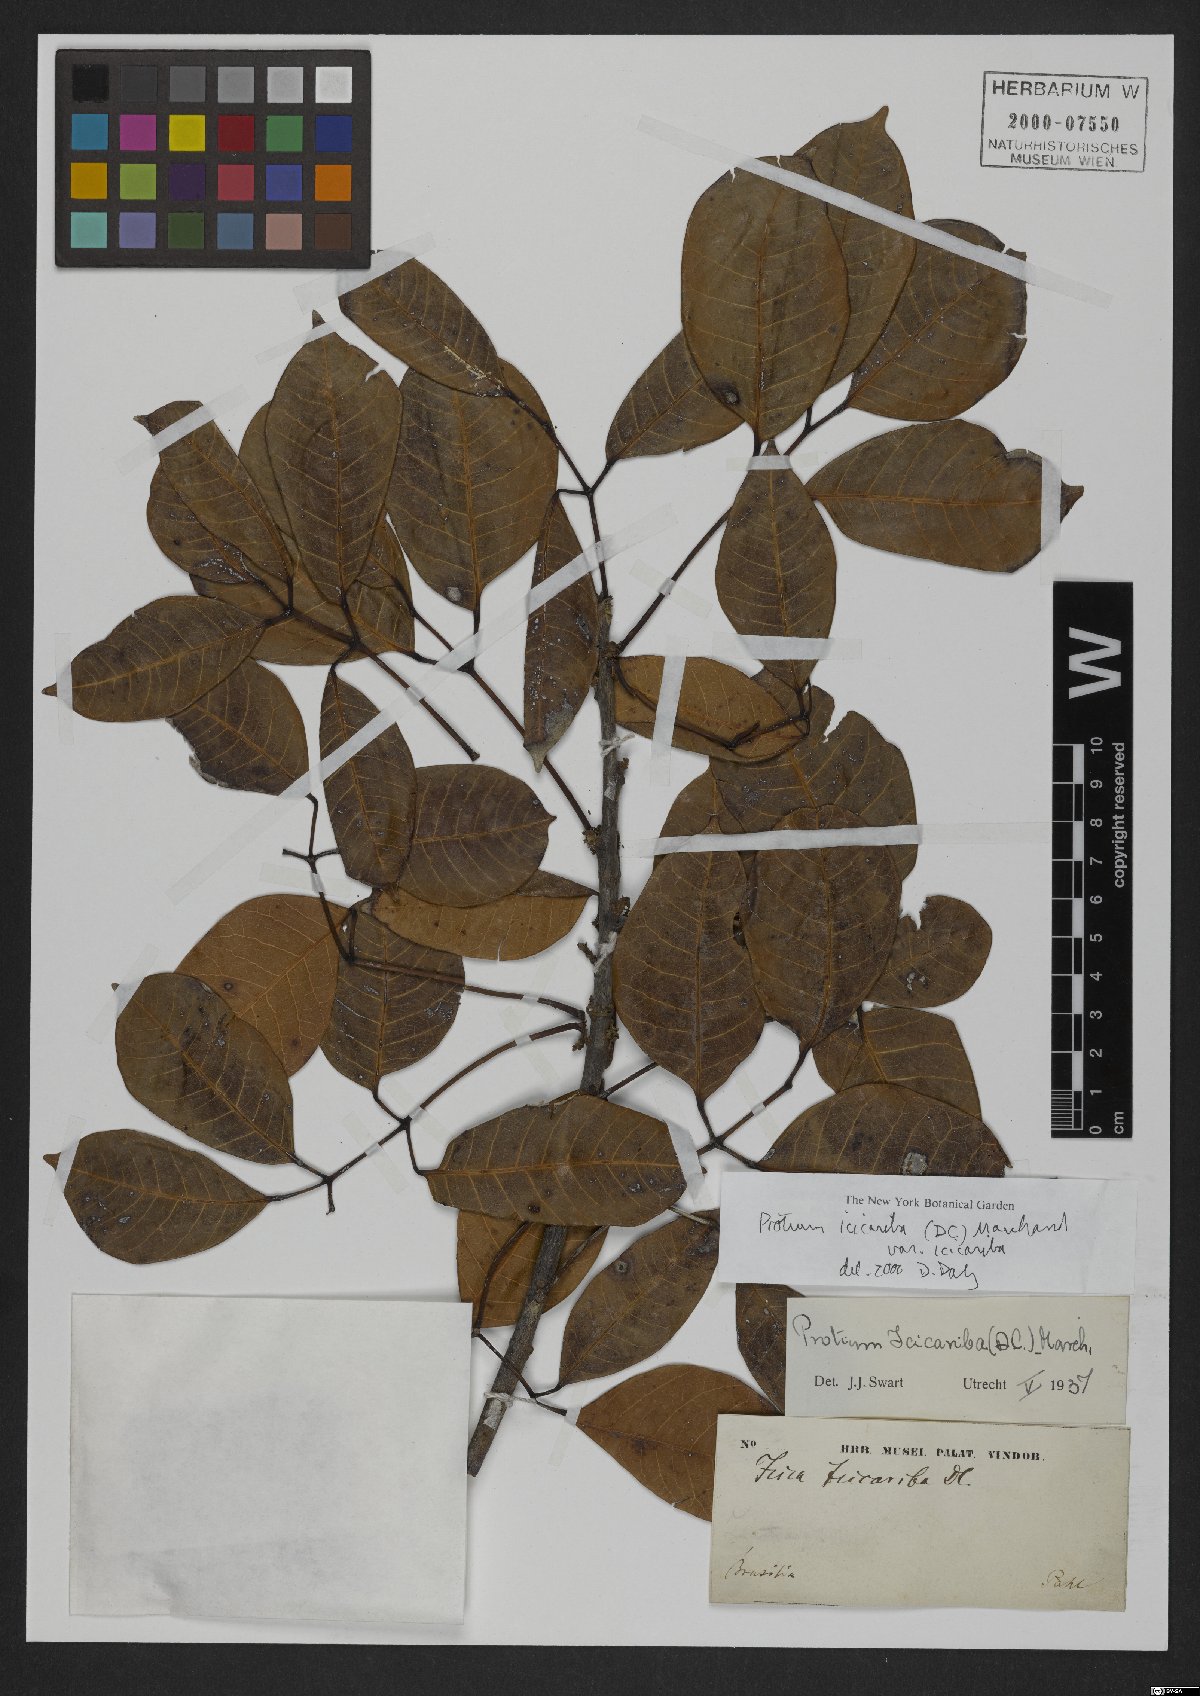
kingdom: Plantae
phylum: Tracheophyta
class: Magnoliopsida
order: Sapindales
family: Burseraceae
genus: Protium
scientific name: Protium icicariba
